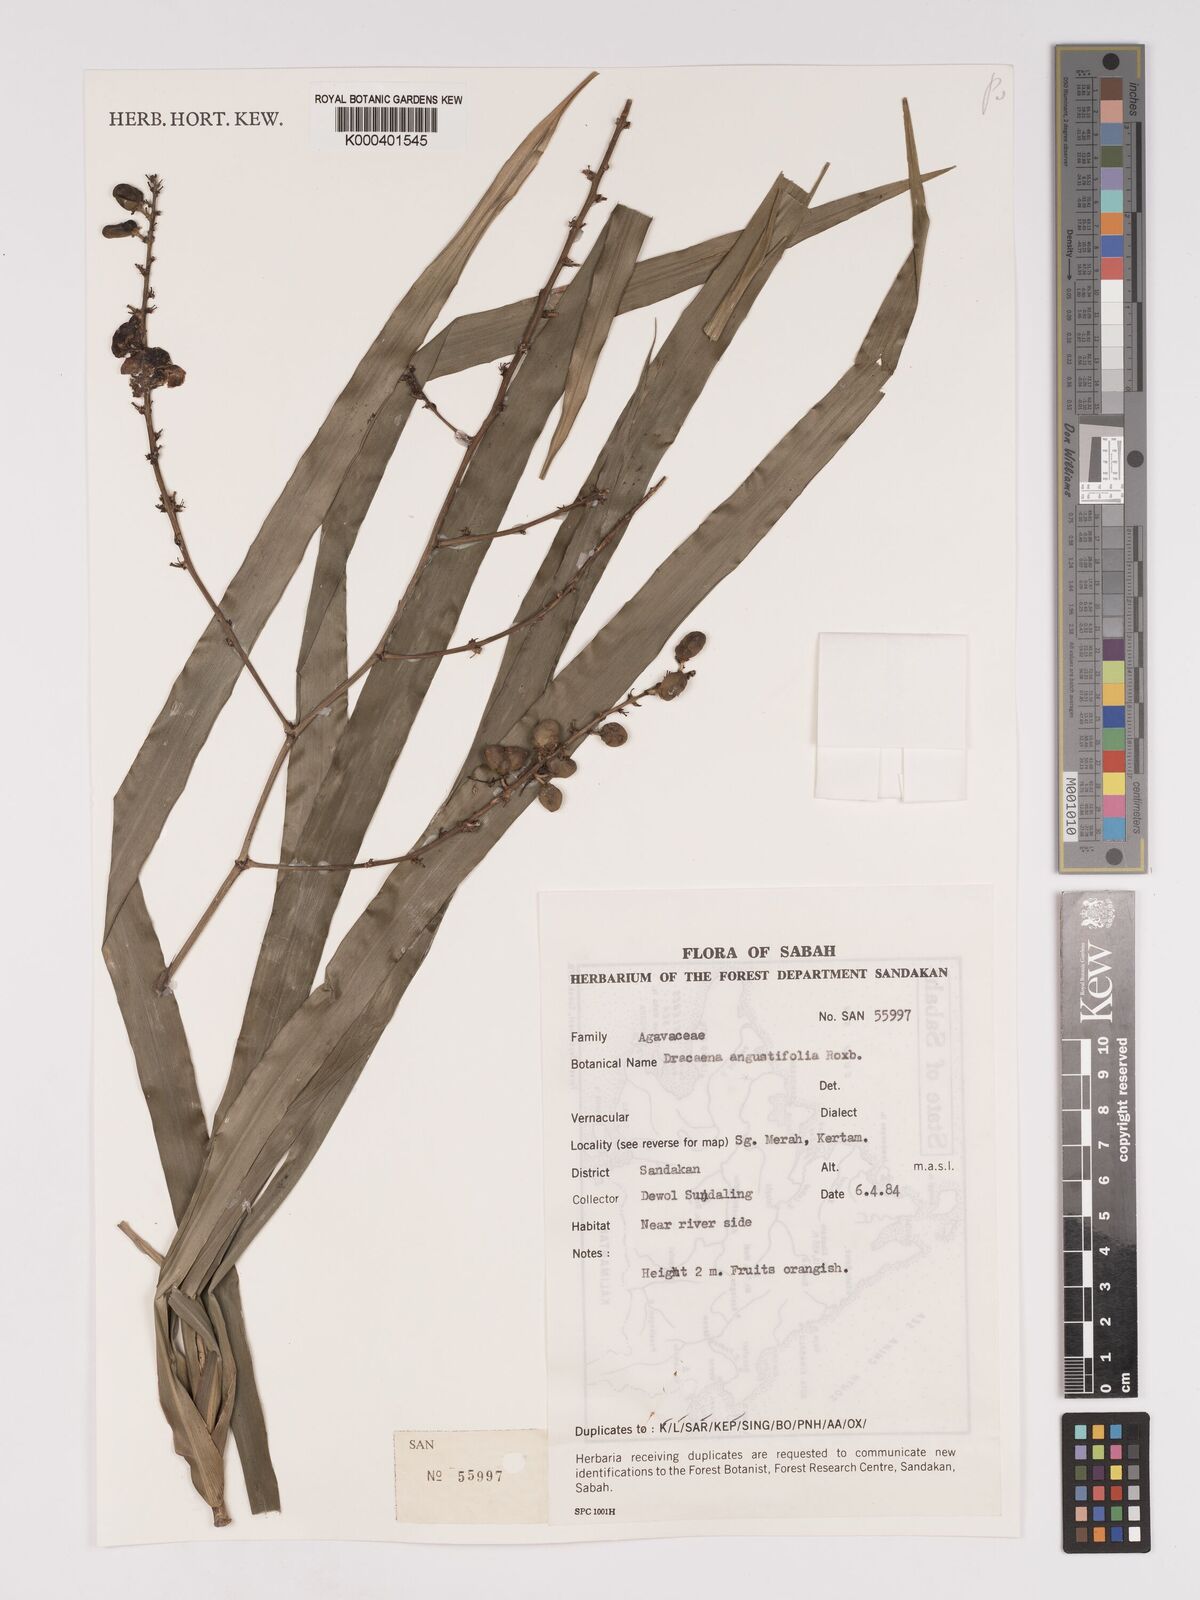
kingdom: Plantae
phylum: Tracheophyta
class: Liliopsida
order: Asparagales
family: Asparagaceae
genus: Dracaena
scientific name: Dracaena angustifolia
